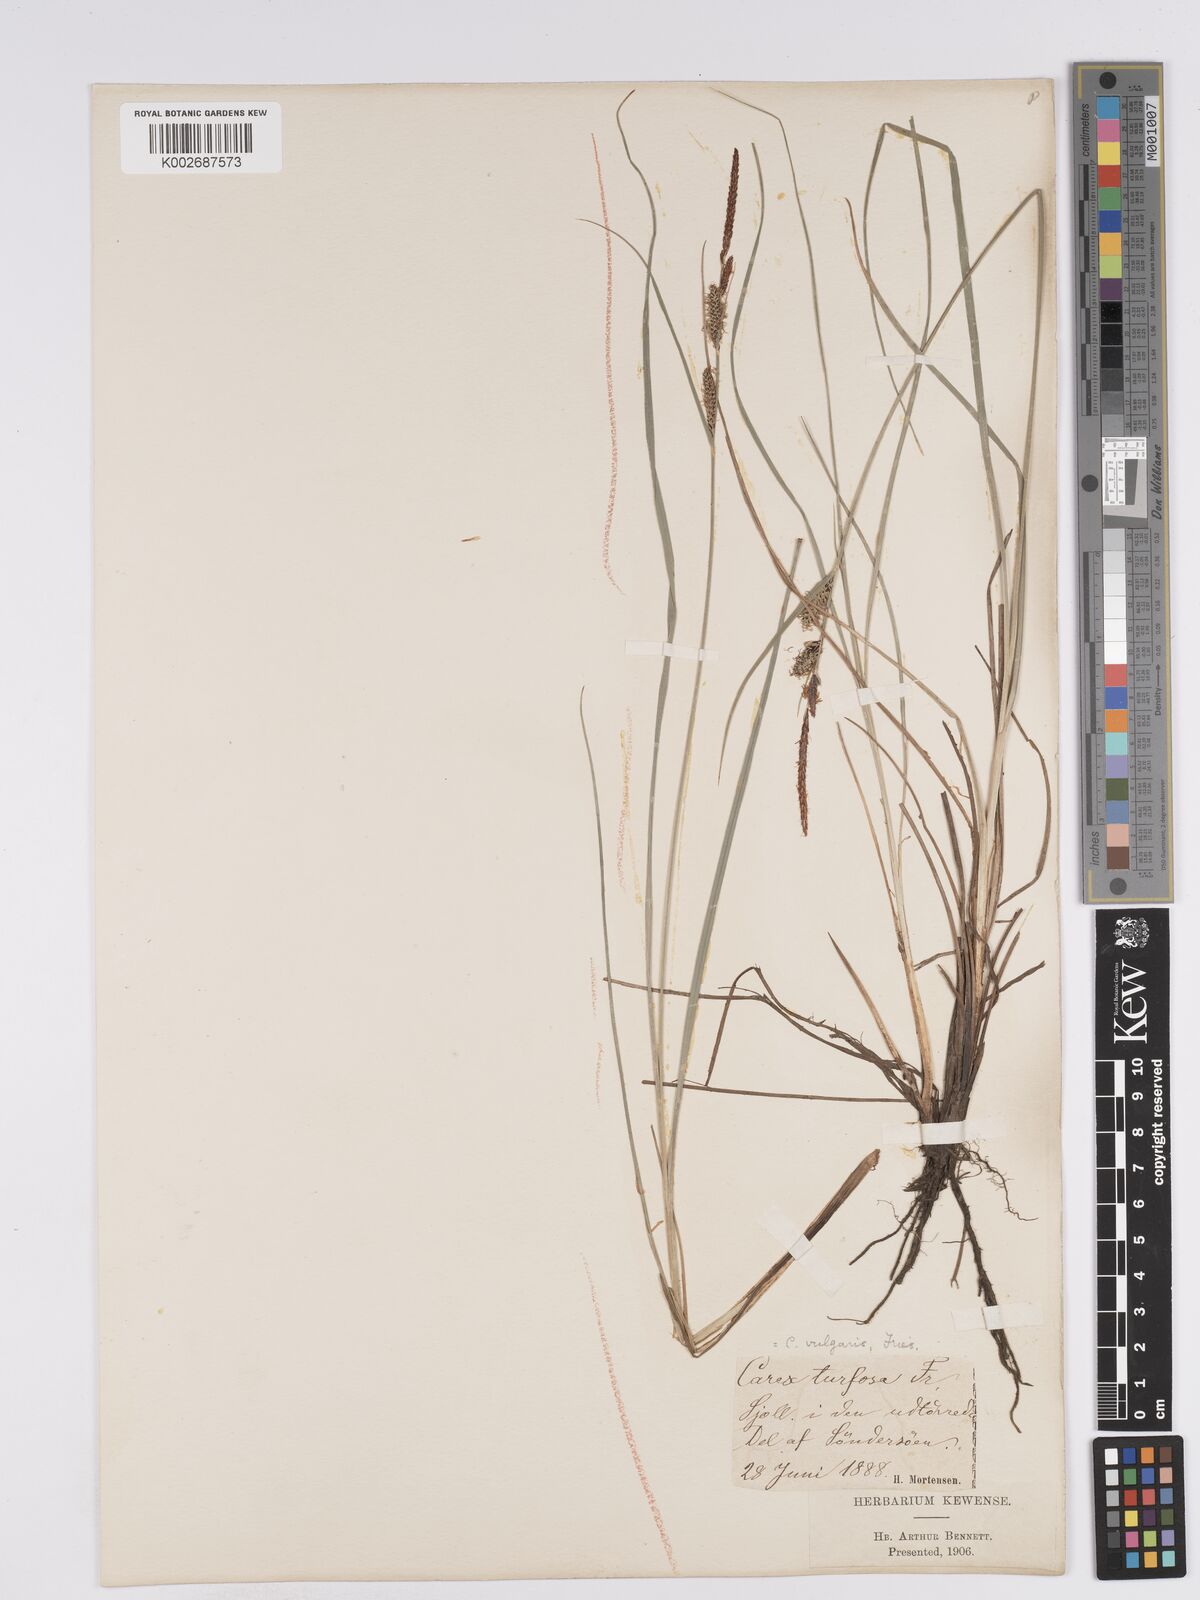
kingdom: Plantae
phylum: Tracheophyta
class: Liliopsida
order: Poales
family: Cyperaceae
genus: Carex
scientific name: Carex nigra
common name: Common sedge
